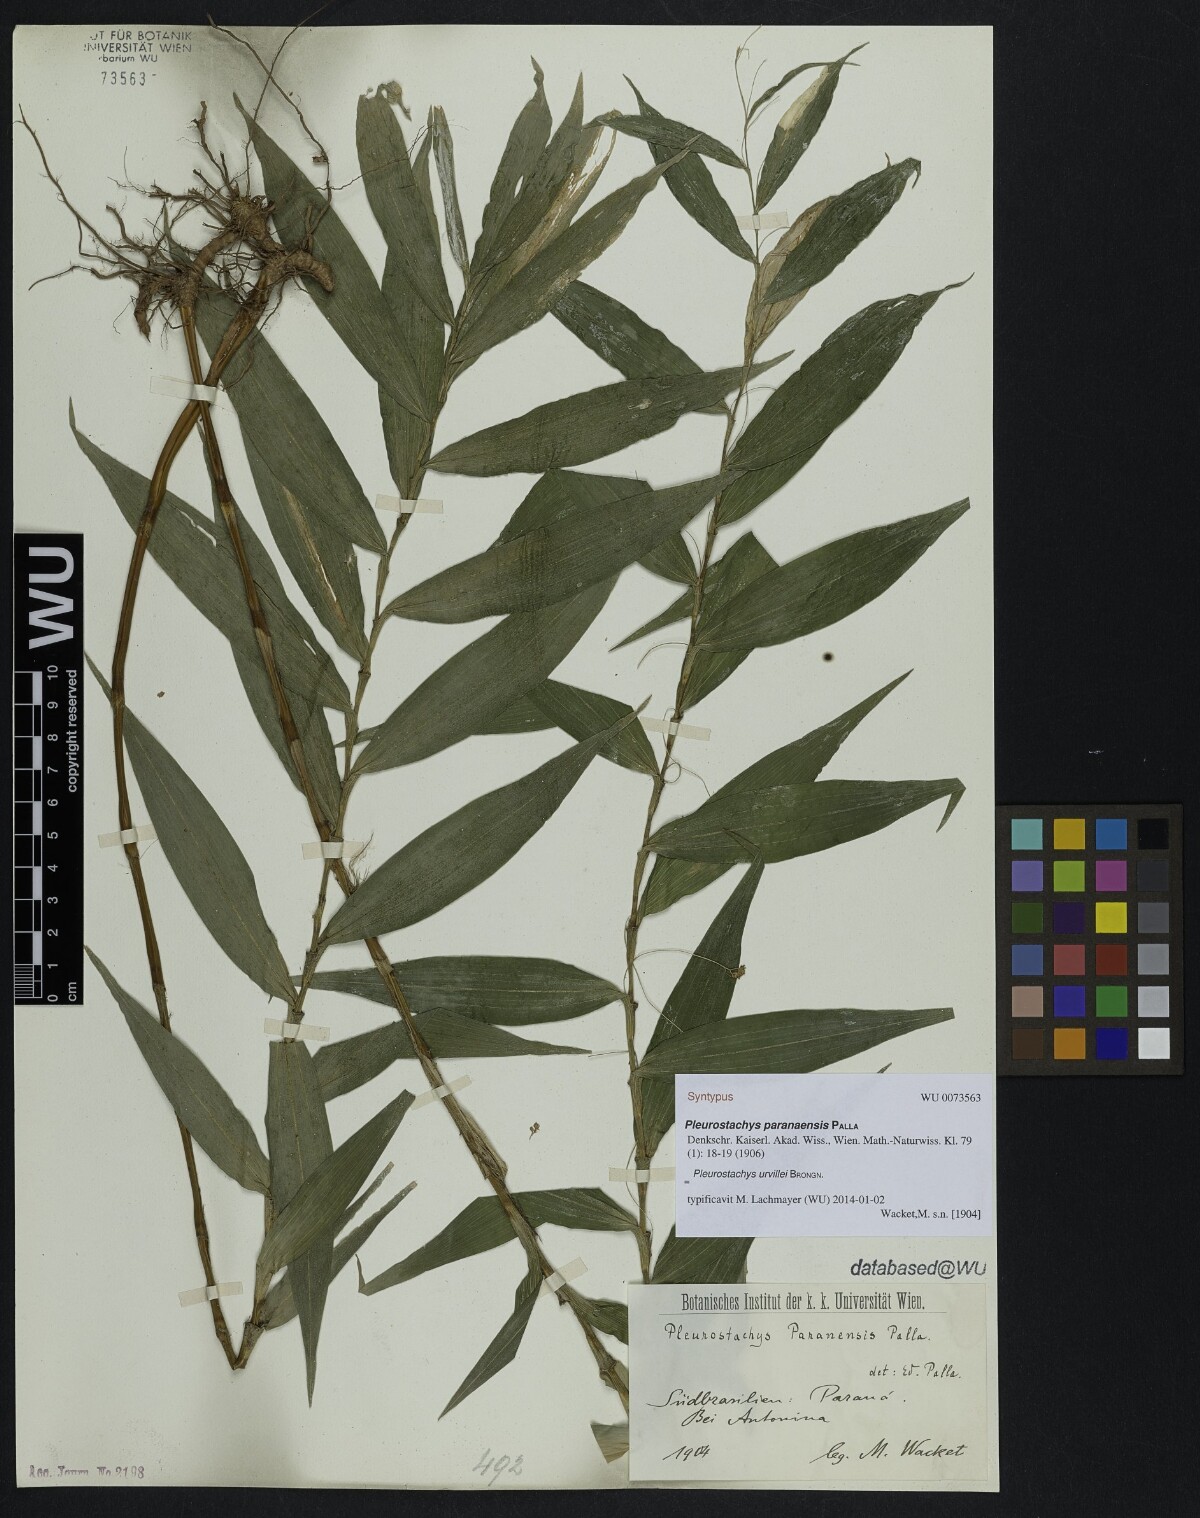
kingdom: Plantae
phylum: Tracheophyta
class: Liliopsida
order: Poales
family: Cyperaceae
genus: Rhynchospora
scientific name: Rhynchospora Pleurostachys ulei
